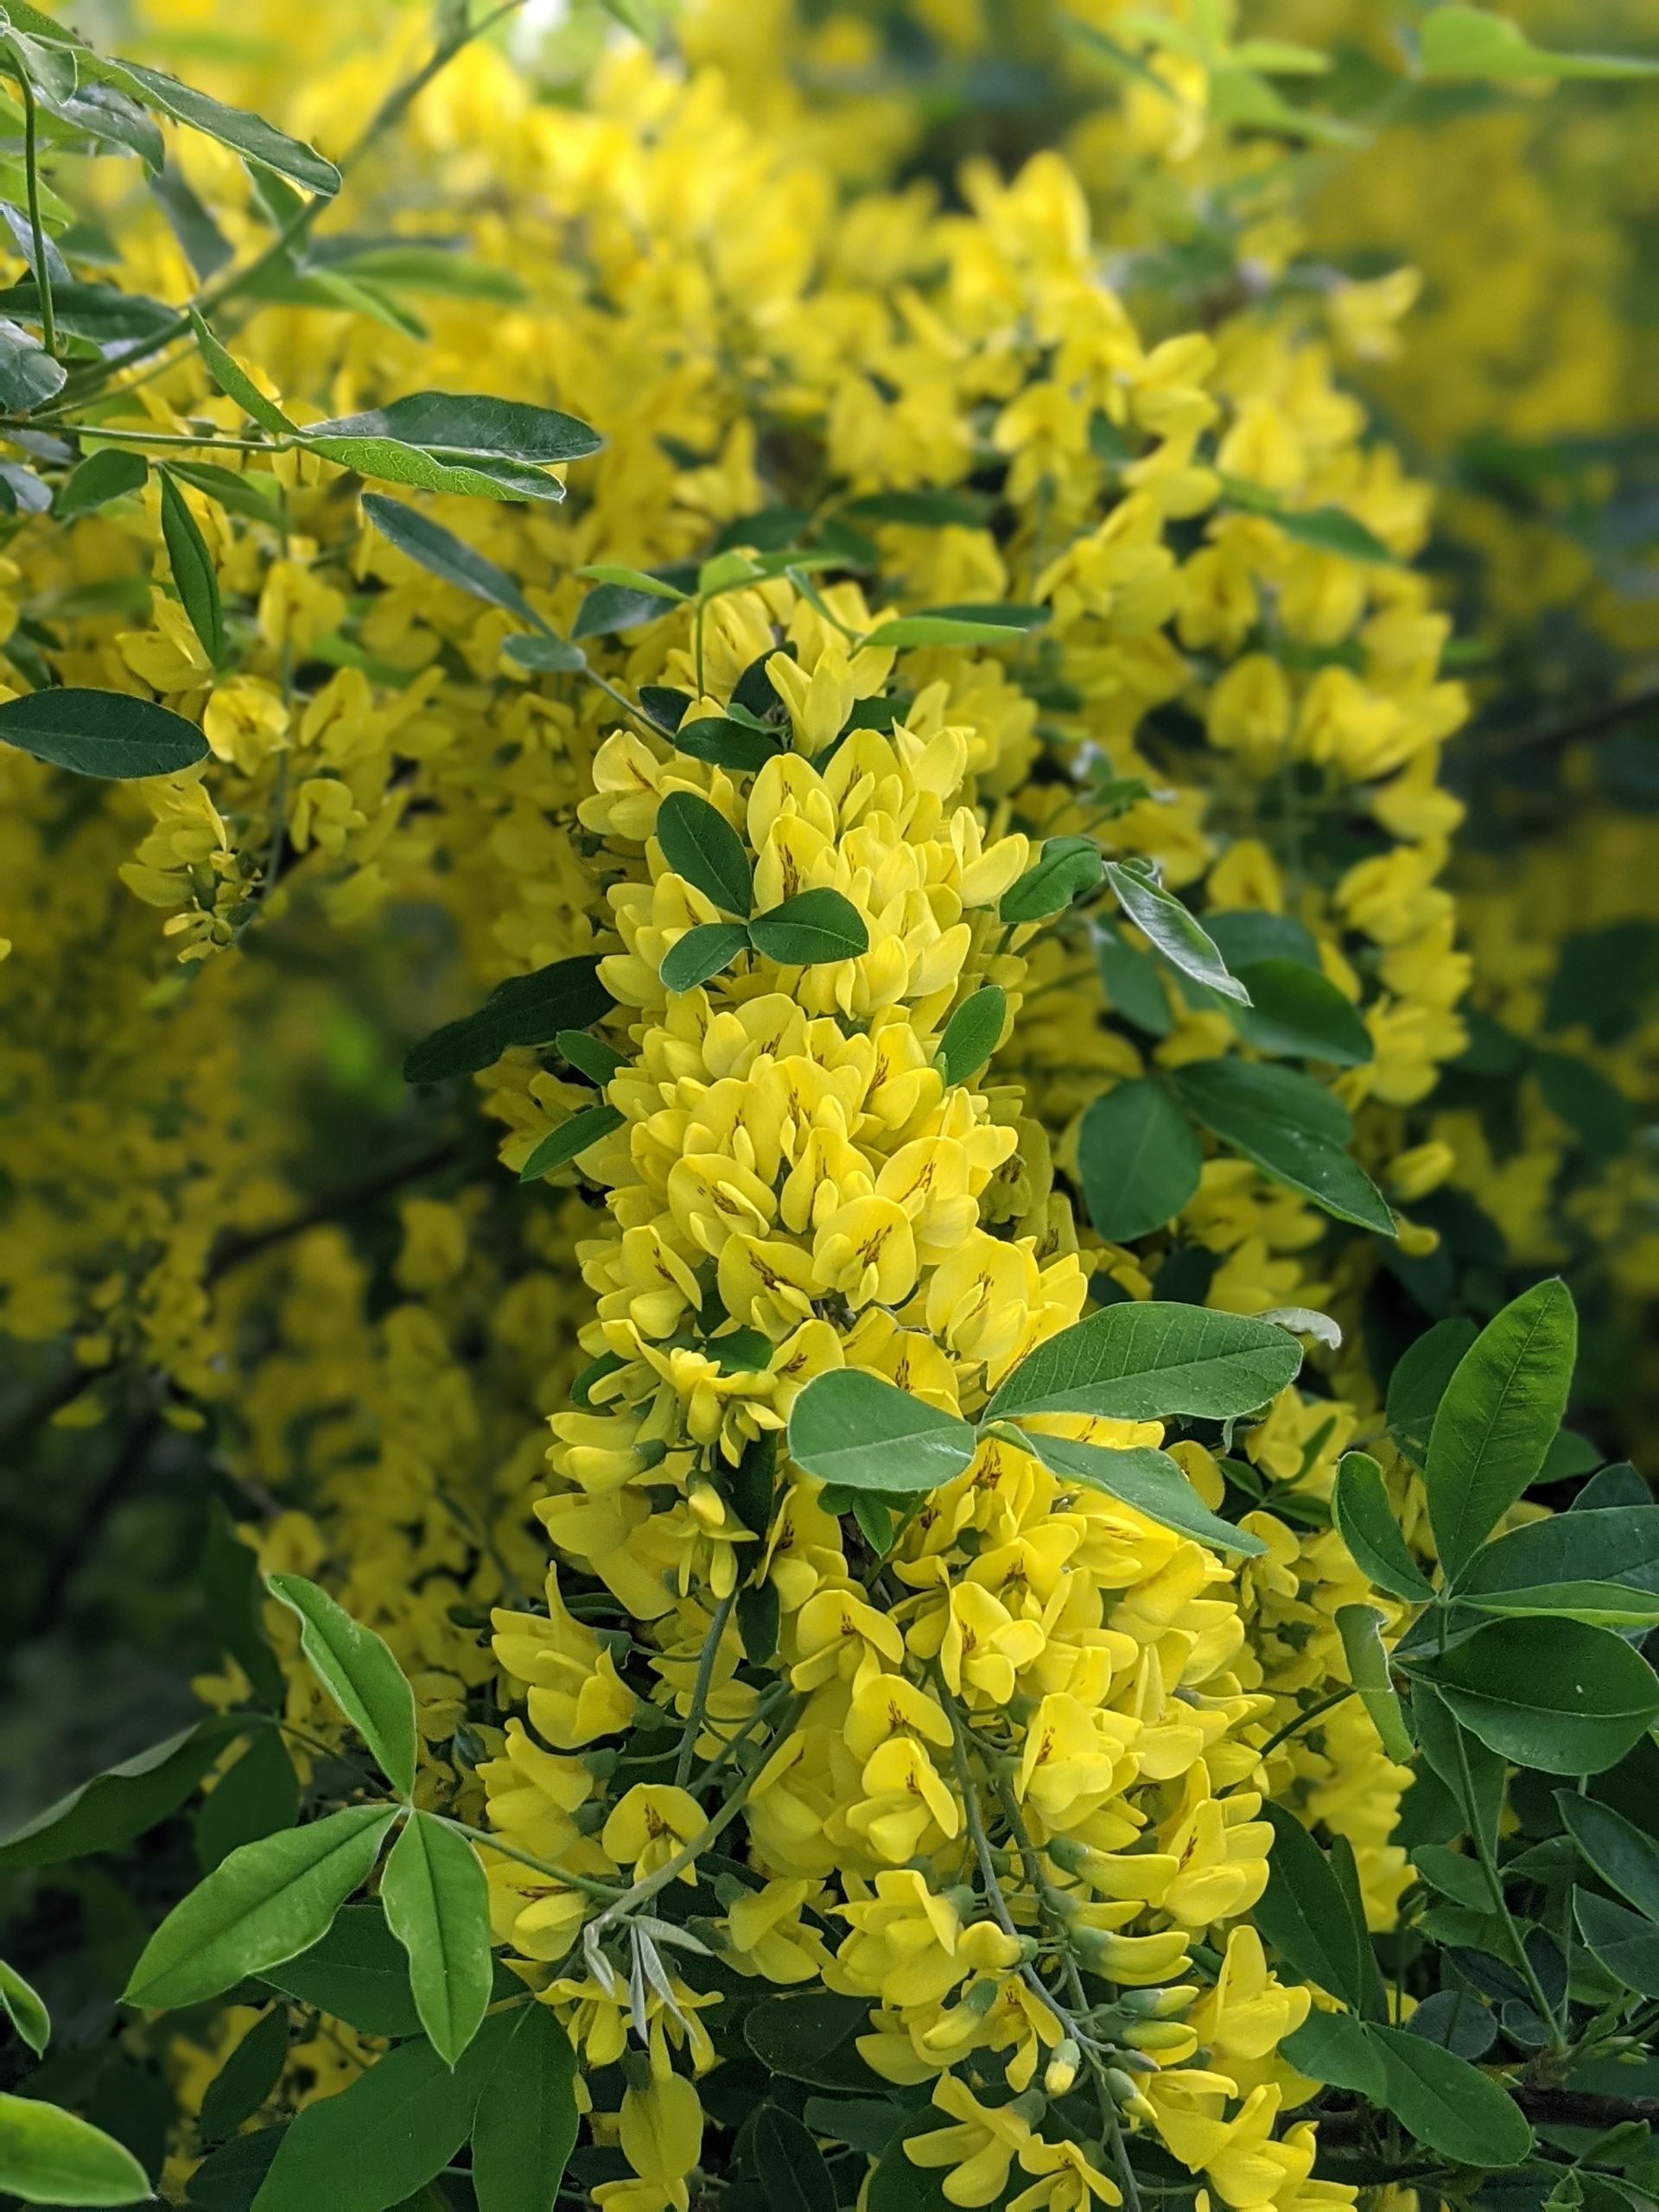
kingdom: Plantae
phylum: Tracheophyta
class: Magnoliopsida
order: Fabales
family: Fabaceae
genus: Laburnum
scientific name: Laburnum anagyroides
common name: Guldregn
